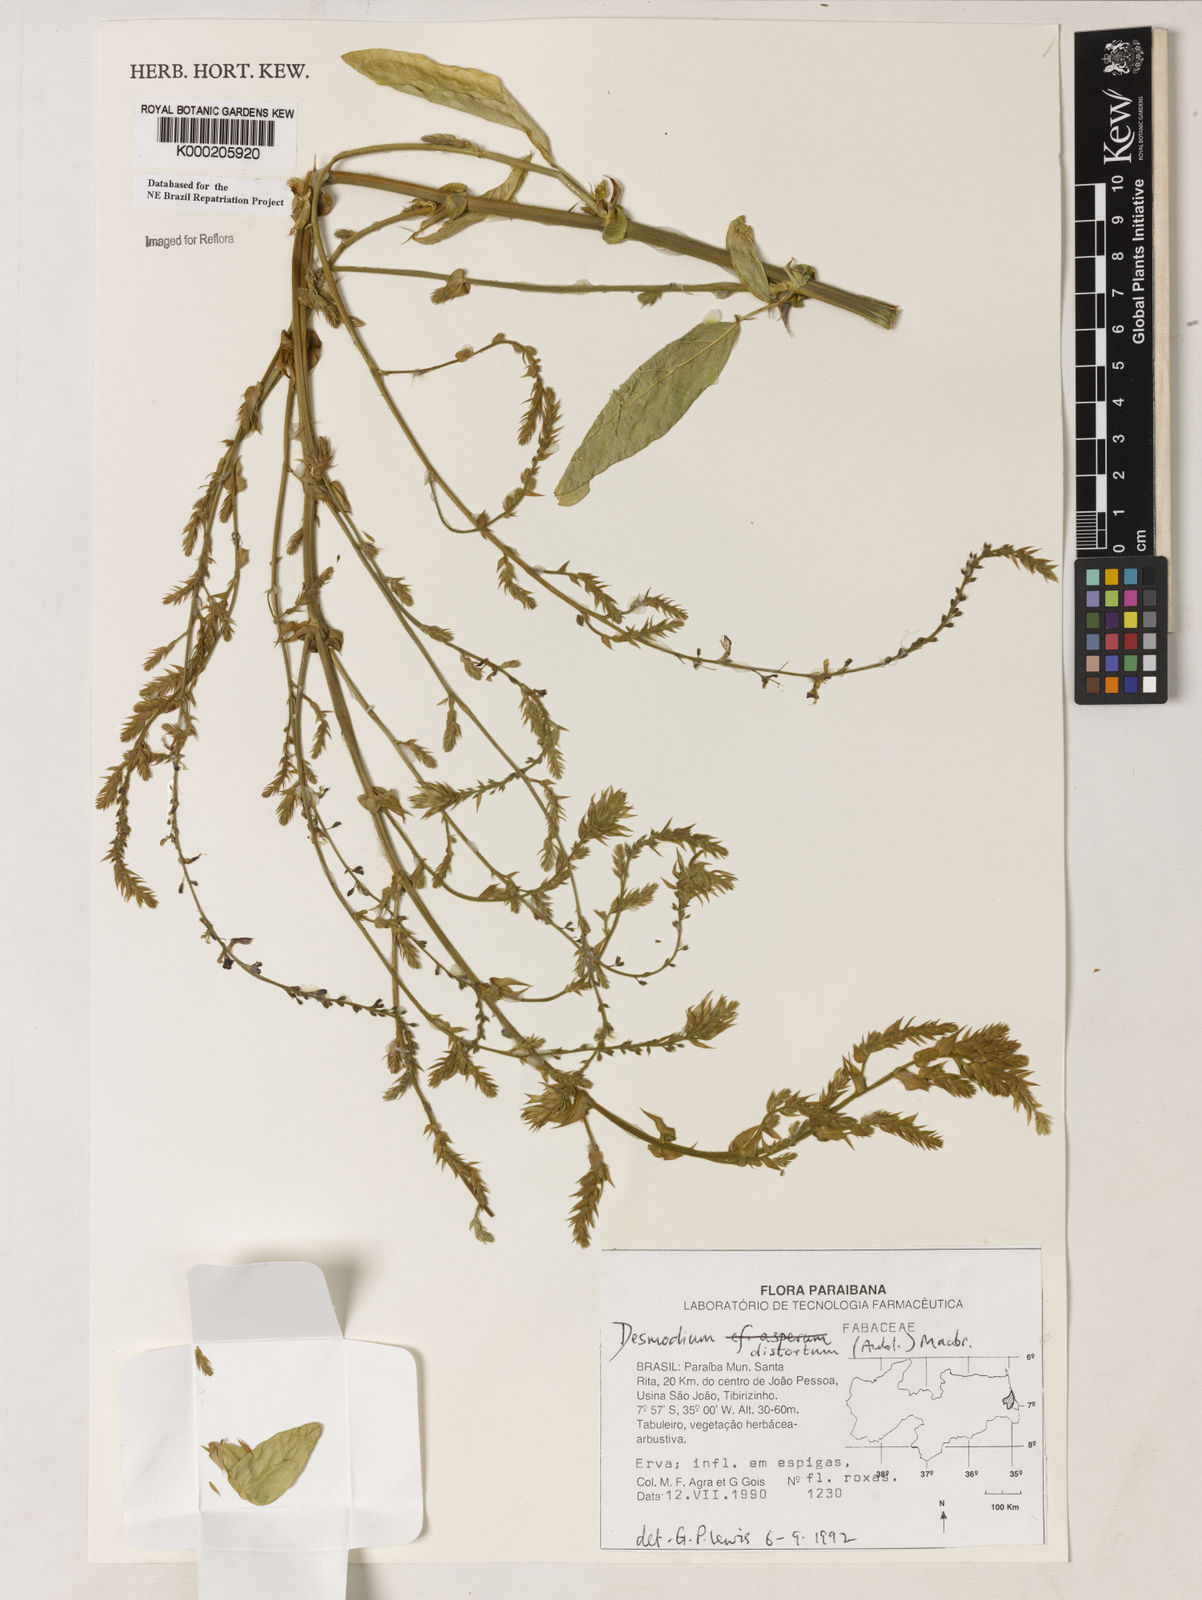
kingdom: Plantae
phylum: Tracheophyta
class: Magnoliopsida
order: Fabales
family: Fabaceae
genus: Desmodium
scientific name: Desmodium distortum
